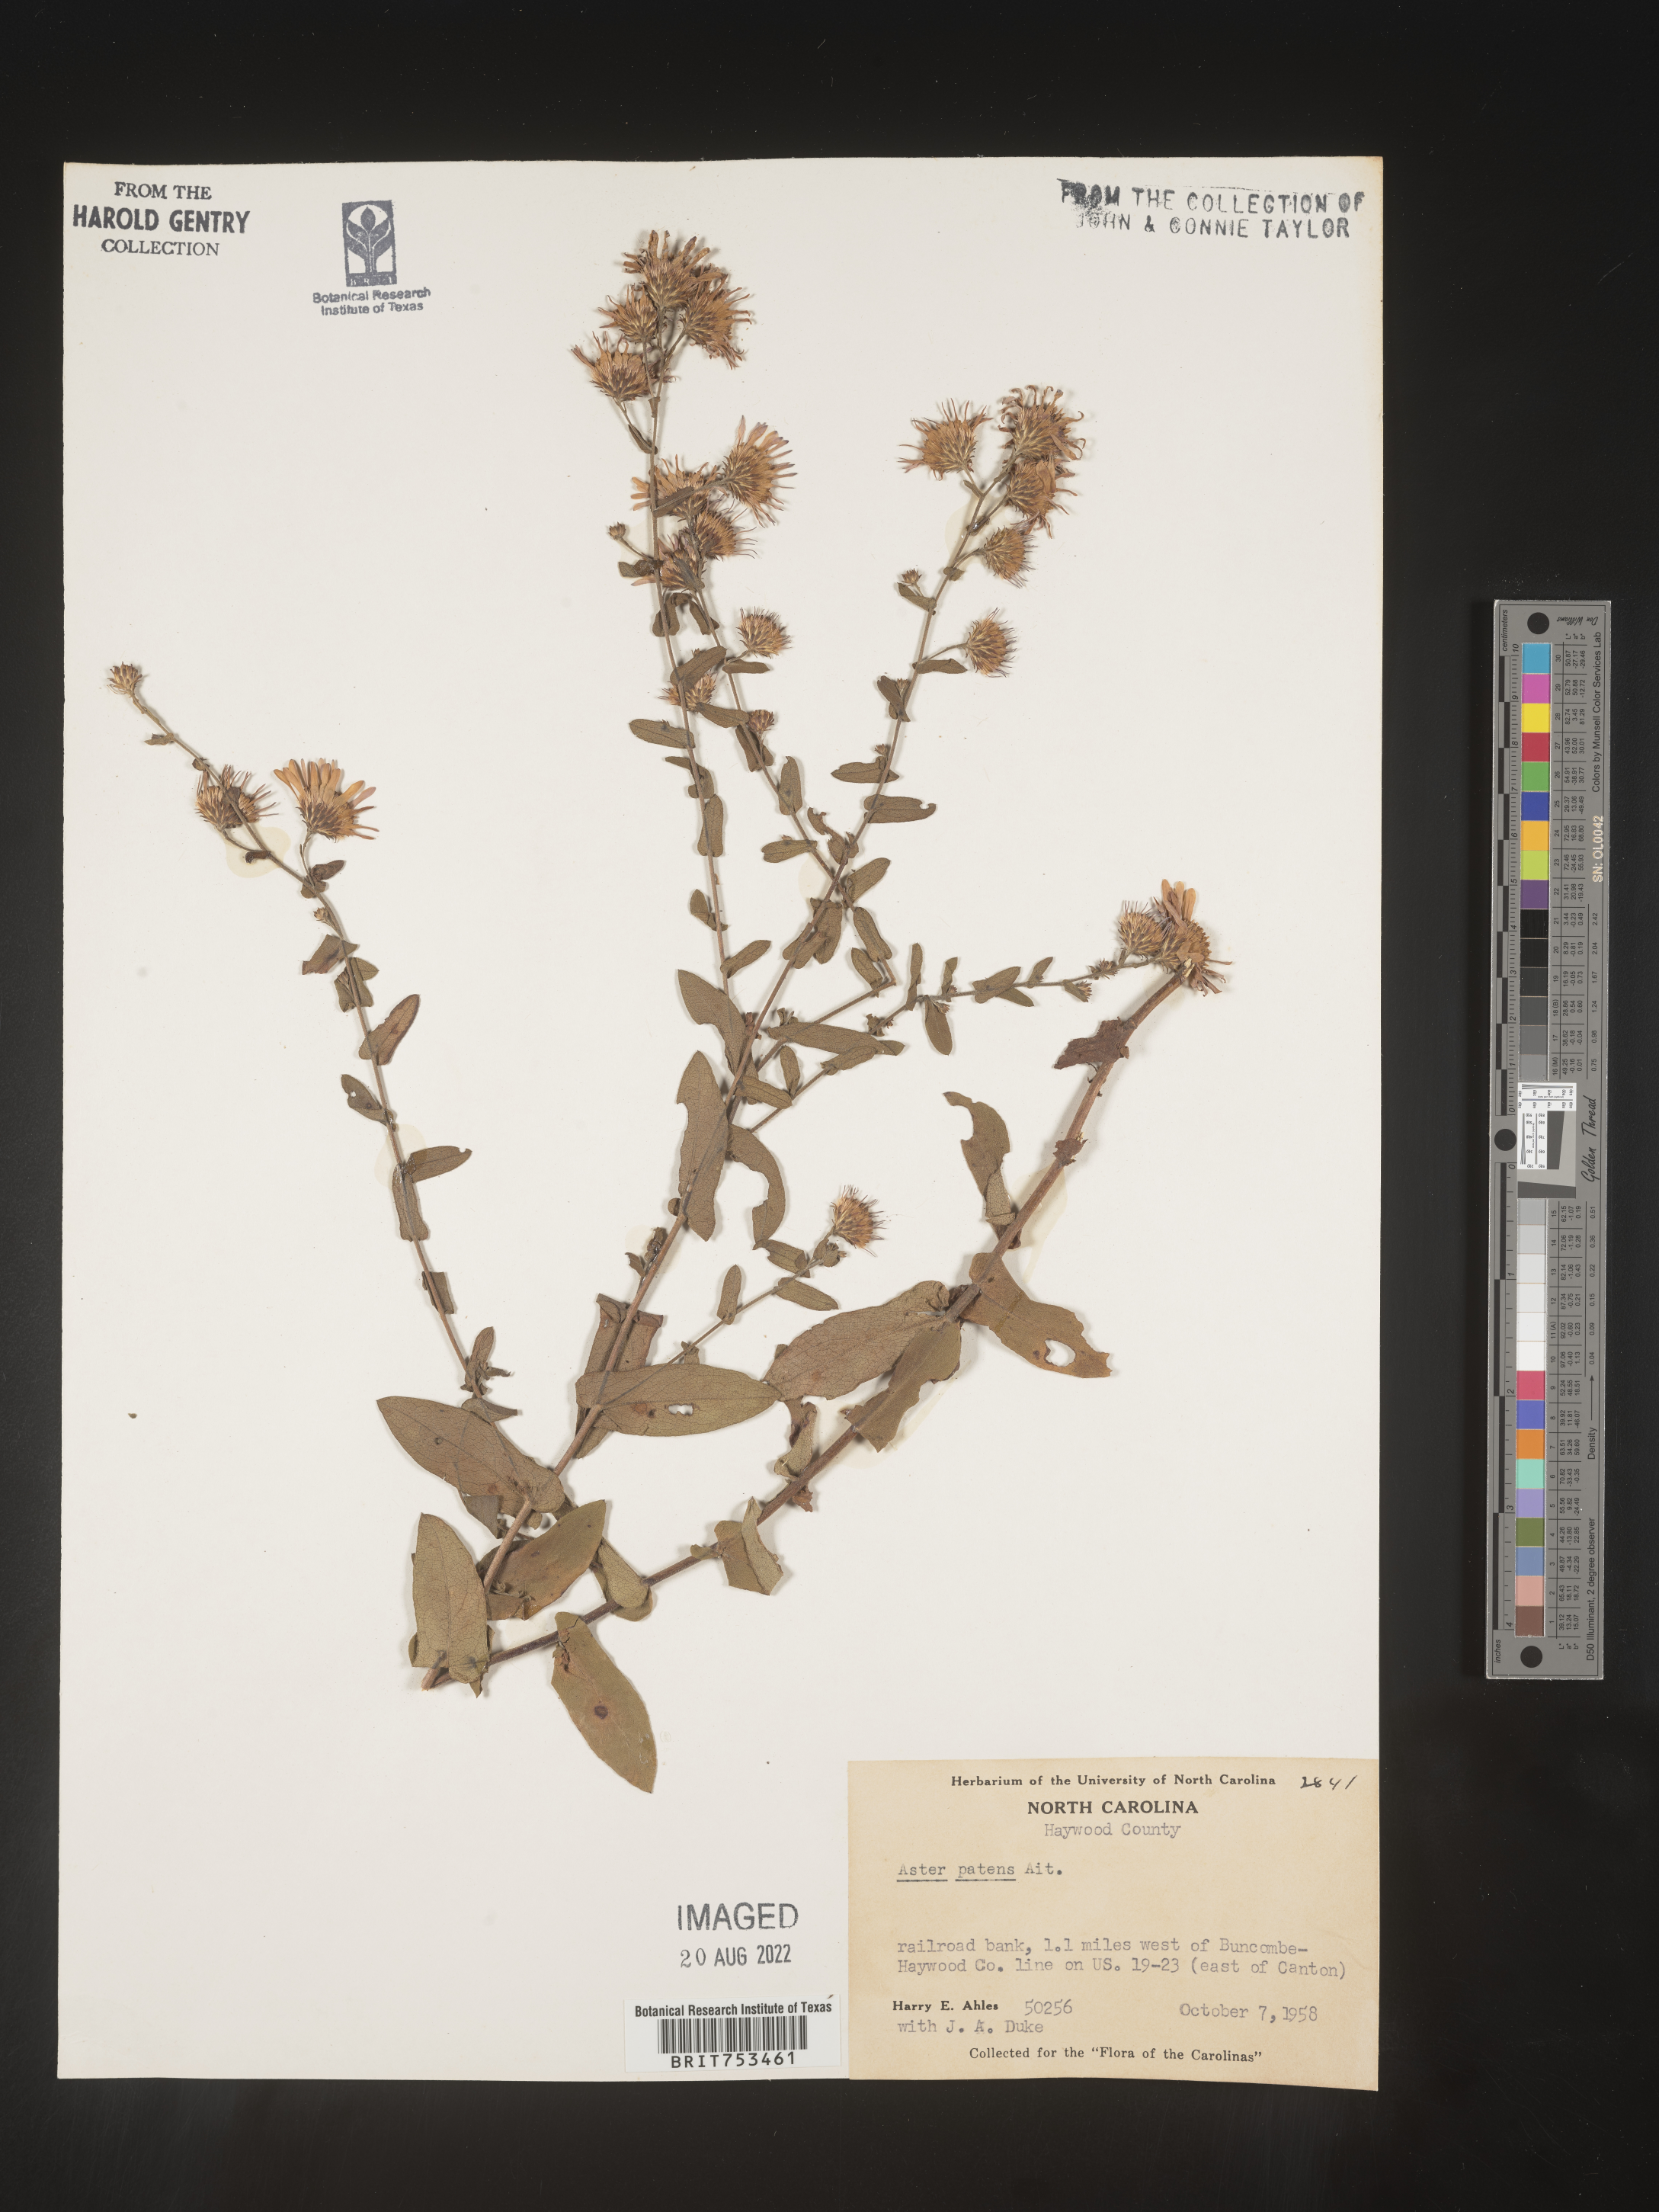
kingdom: Plantae
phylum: Tracheophyta
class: Magnoliopsida
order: Asterales
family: Asteraceae
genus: Symphyotrichum
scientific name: Symphyotrichum patens
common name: Late purple aster
